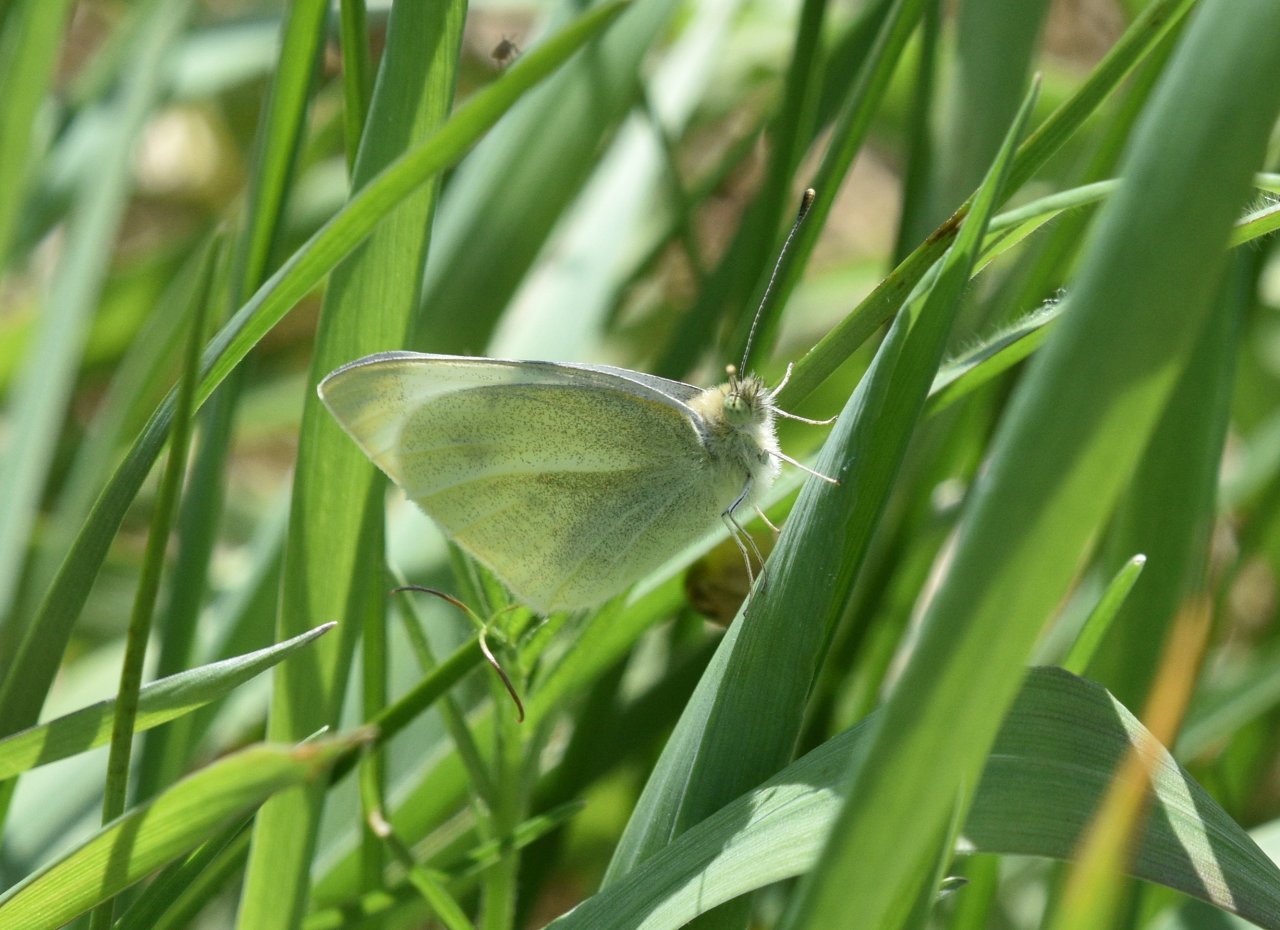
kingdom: Animalia
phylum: Arthropoda
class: Insecta
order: Lepidoptera
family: Pieridae
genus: Pieris
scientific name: Pieris rapae
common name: Cabbage White
